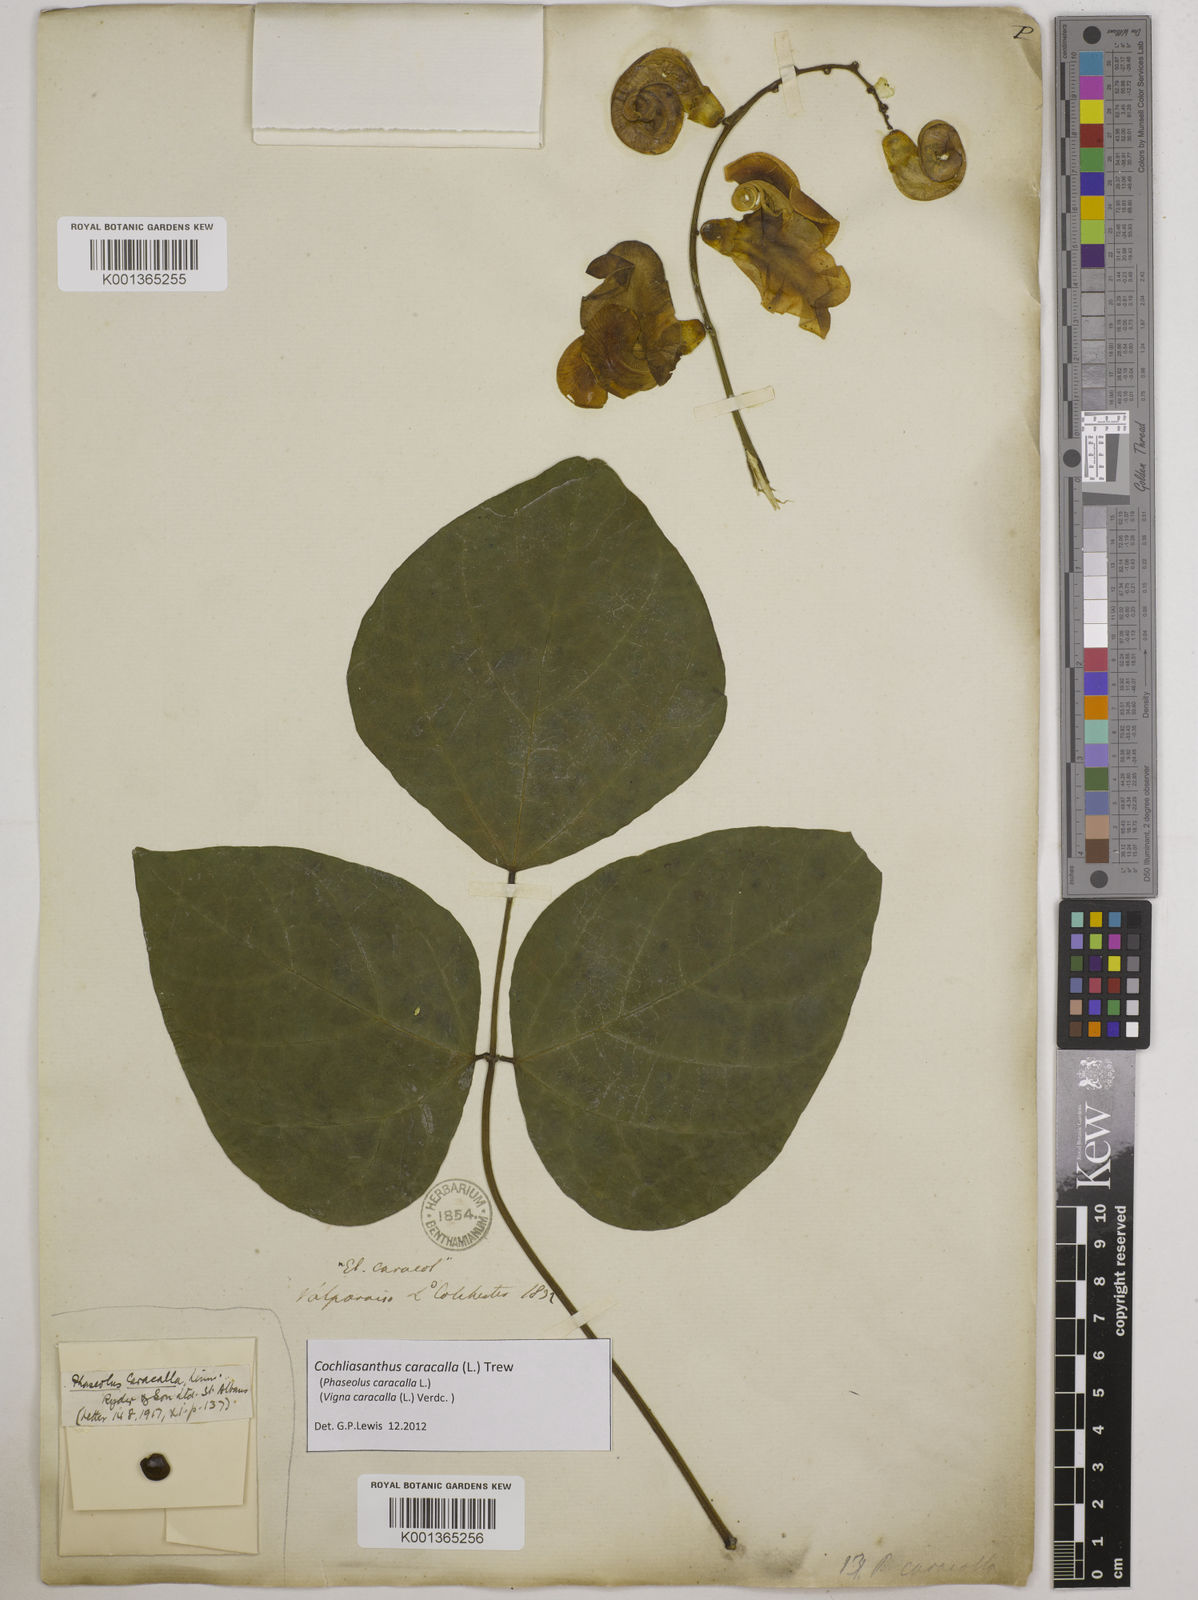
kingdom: Plantae
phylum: Tracheophyta
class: Magnoliopsida
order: Fabales
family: Fabaceae
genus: Cochliasanthus
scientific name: Cochliasanthus caracalla
